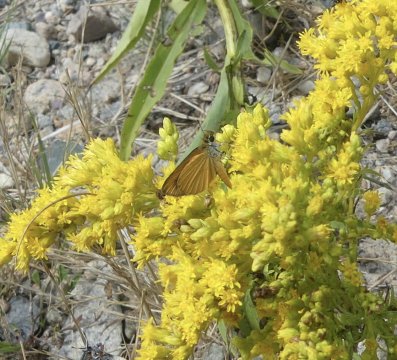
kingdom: Animalia
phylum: Arthropoda
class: Insecta
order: Lepidoptera
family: Hesperiidae
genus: Ancyloxypha
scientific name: Ancyloxypha numitor
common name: Least Skipper
